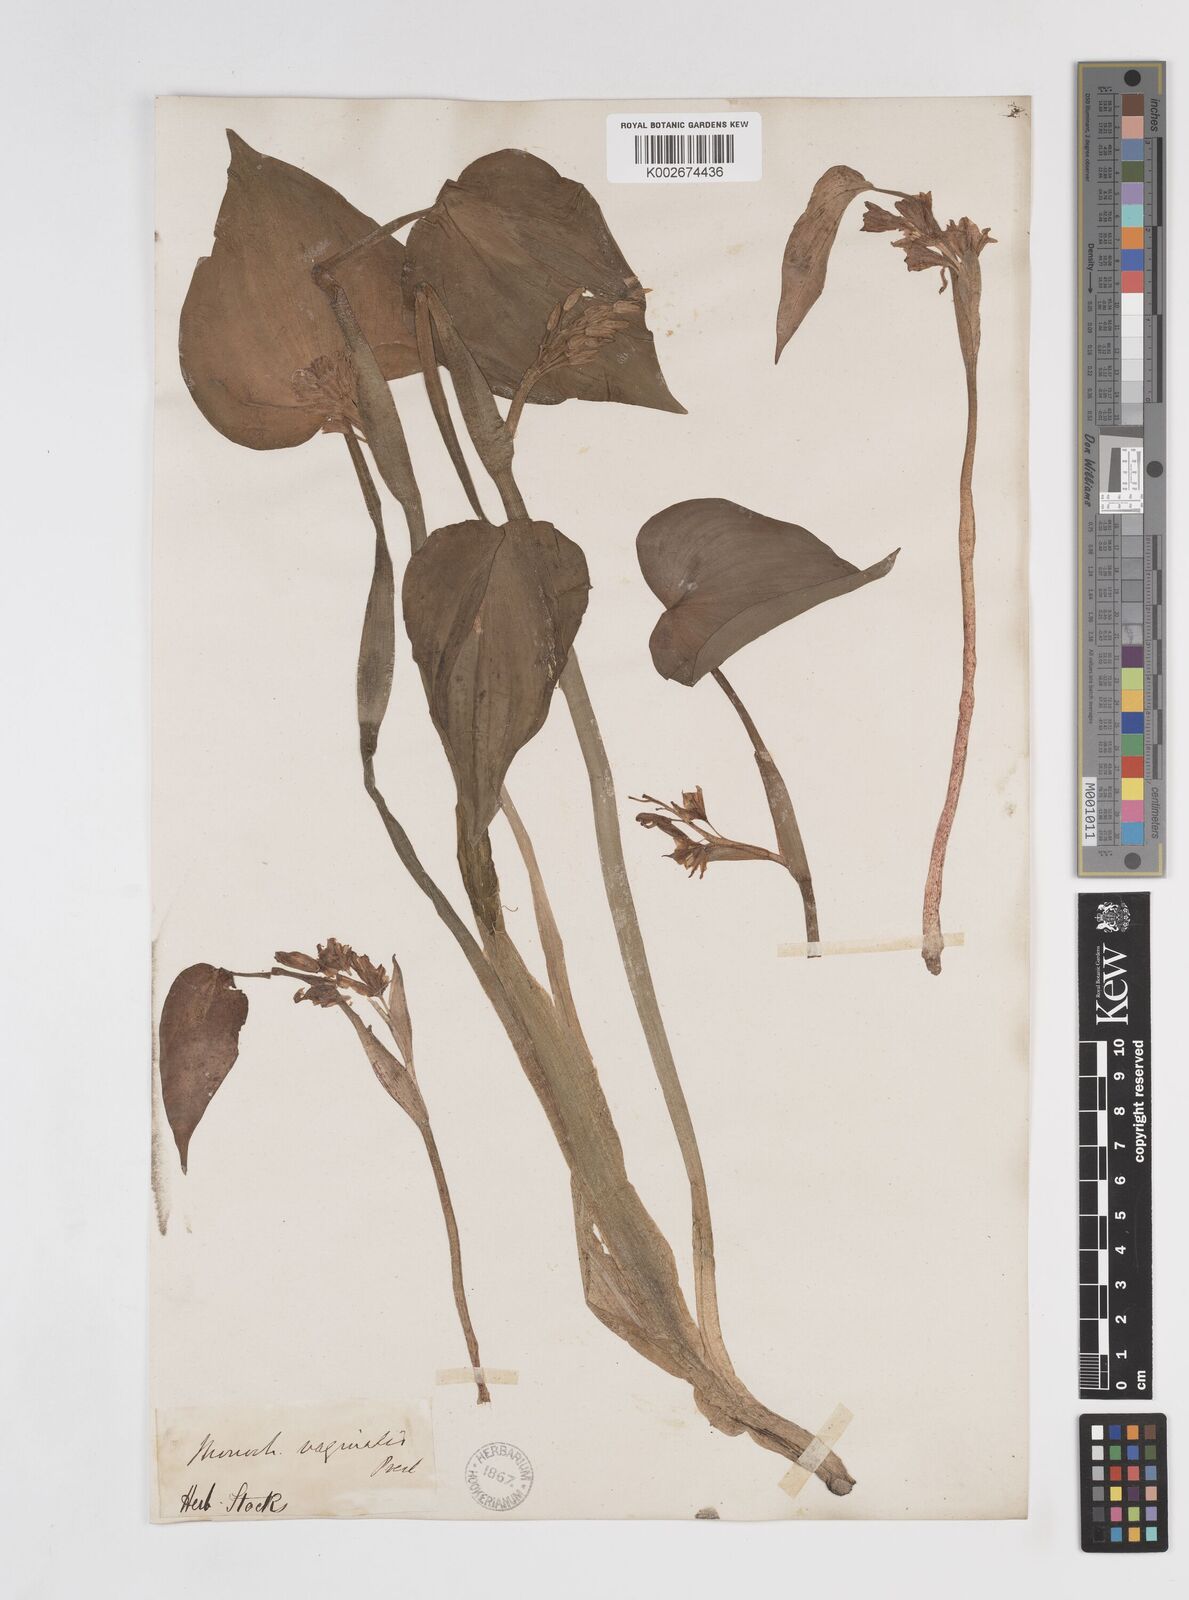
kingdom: Plantae
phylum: Tracheophyta
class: Liliopsida
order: Commelinales
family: Pontederiaceae
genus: Pontederia
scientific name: Pontederia vaginalis
